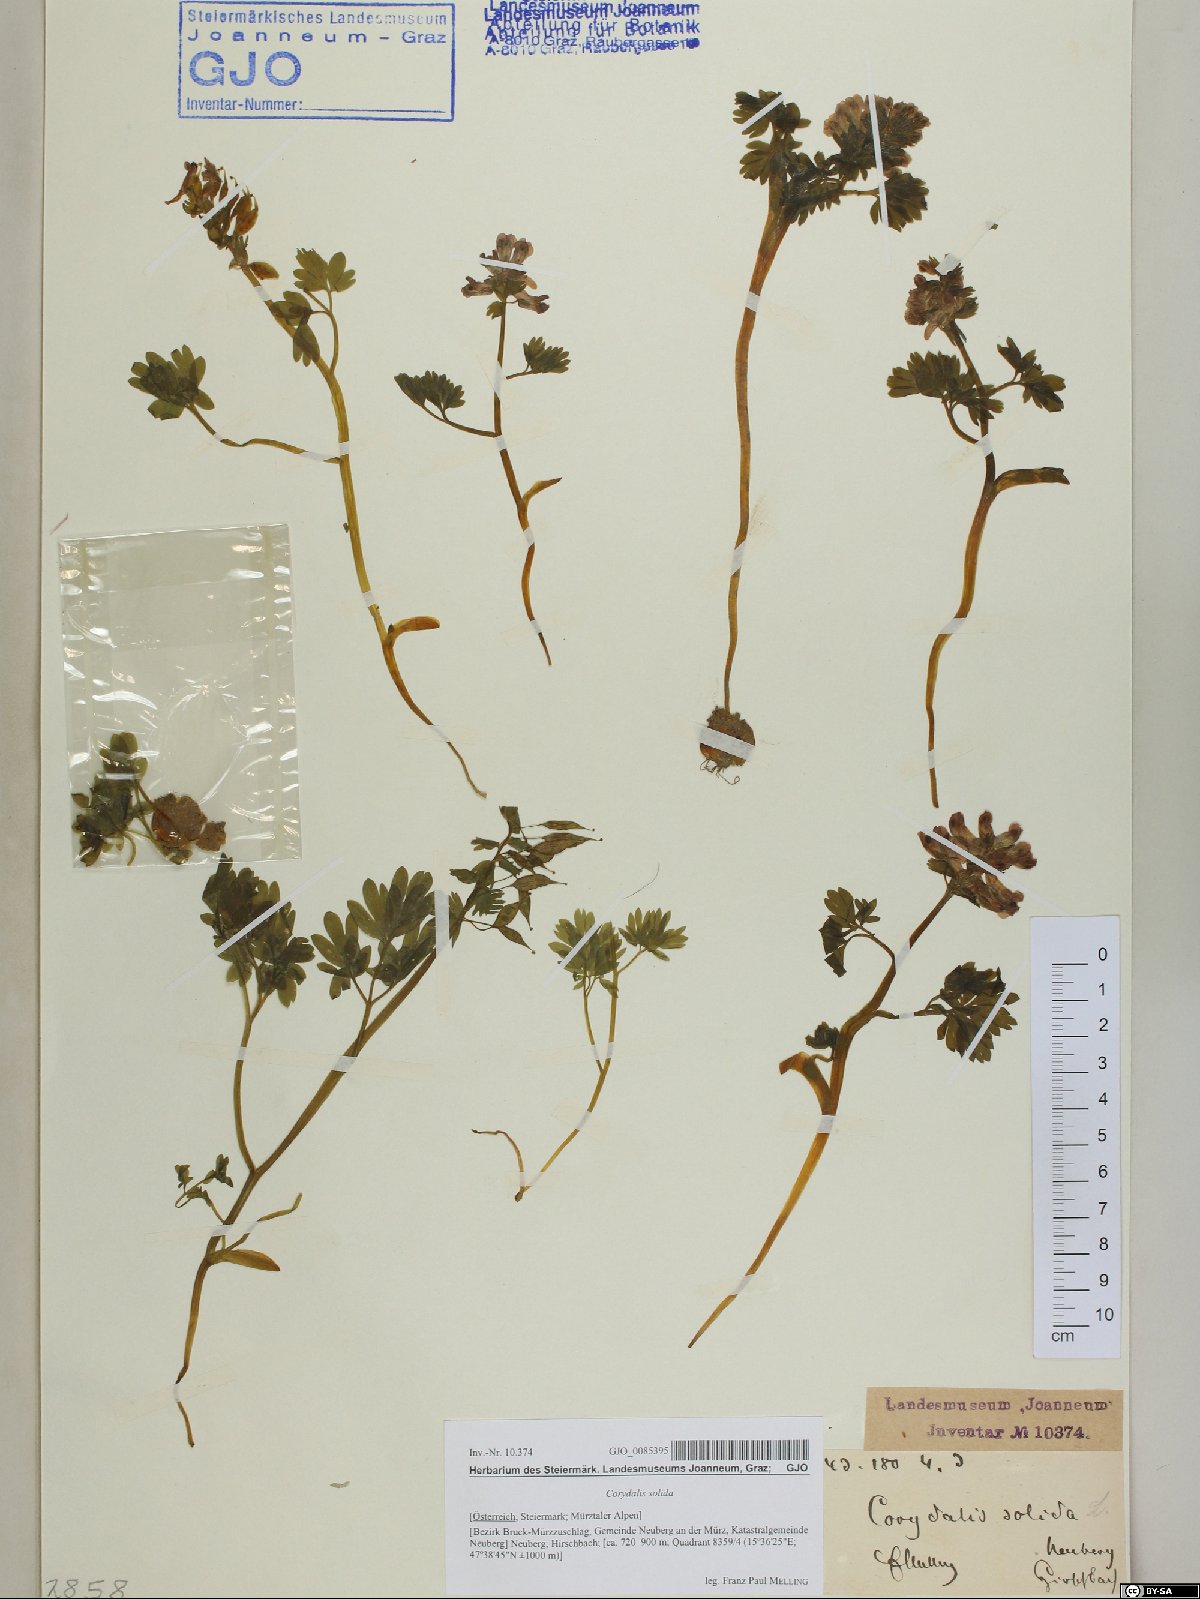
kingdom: Plantae
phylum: Tracheophyta
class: Magnoliopsida
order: Ranunculales
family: Papaveraceae
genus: Corydalis
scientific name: Corydalis solida
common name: Bird-in-a-bush
